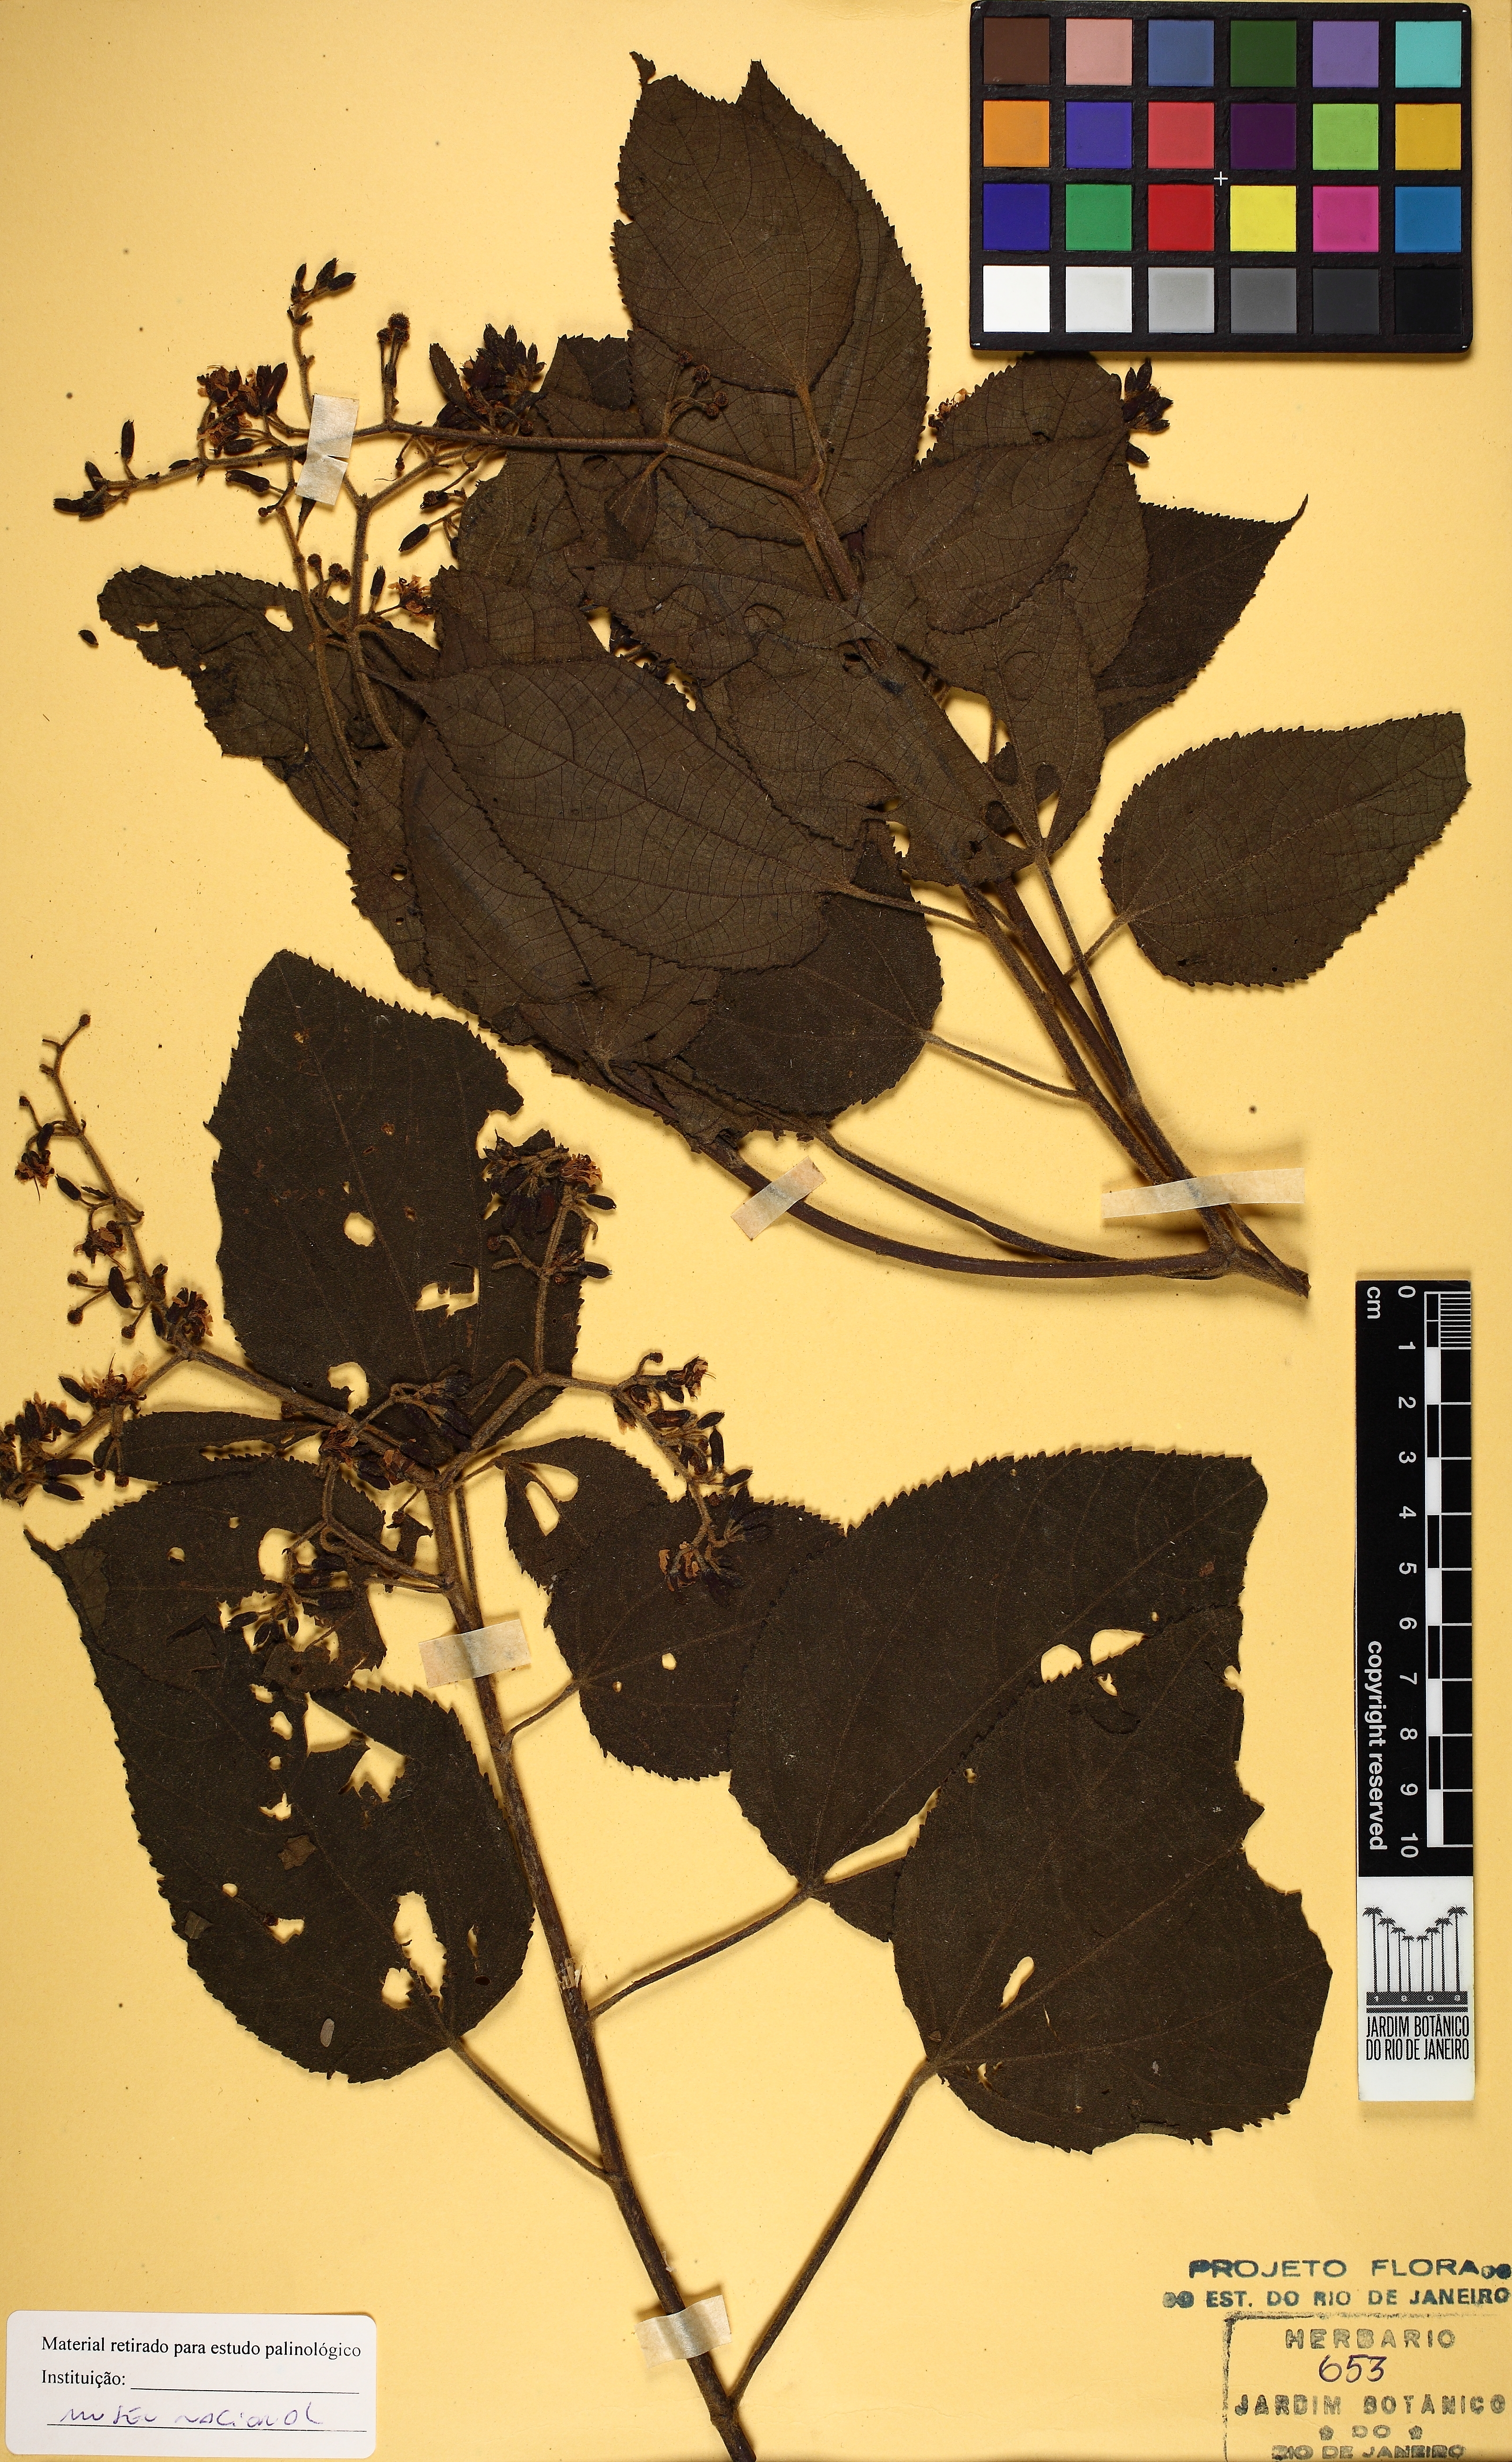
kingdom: Plantae
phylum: Tracheophyta
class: Magnoliopsida
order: Malvales
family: Malvaceae
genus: Triumfetta
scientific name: Triumfetta grandiflora
